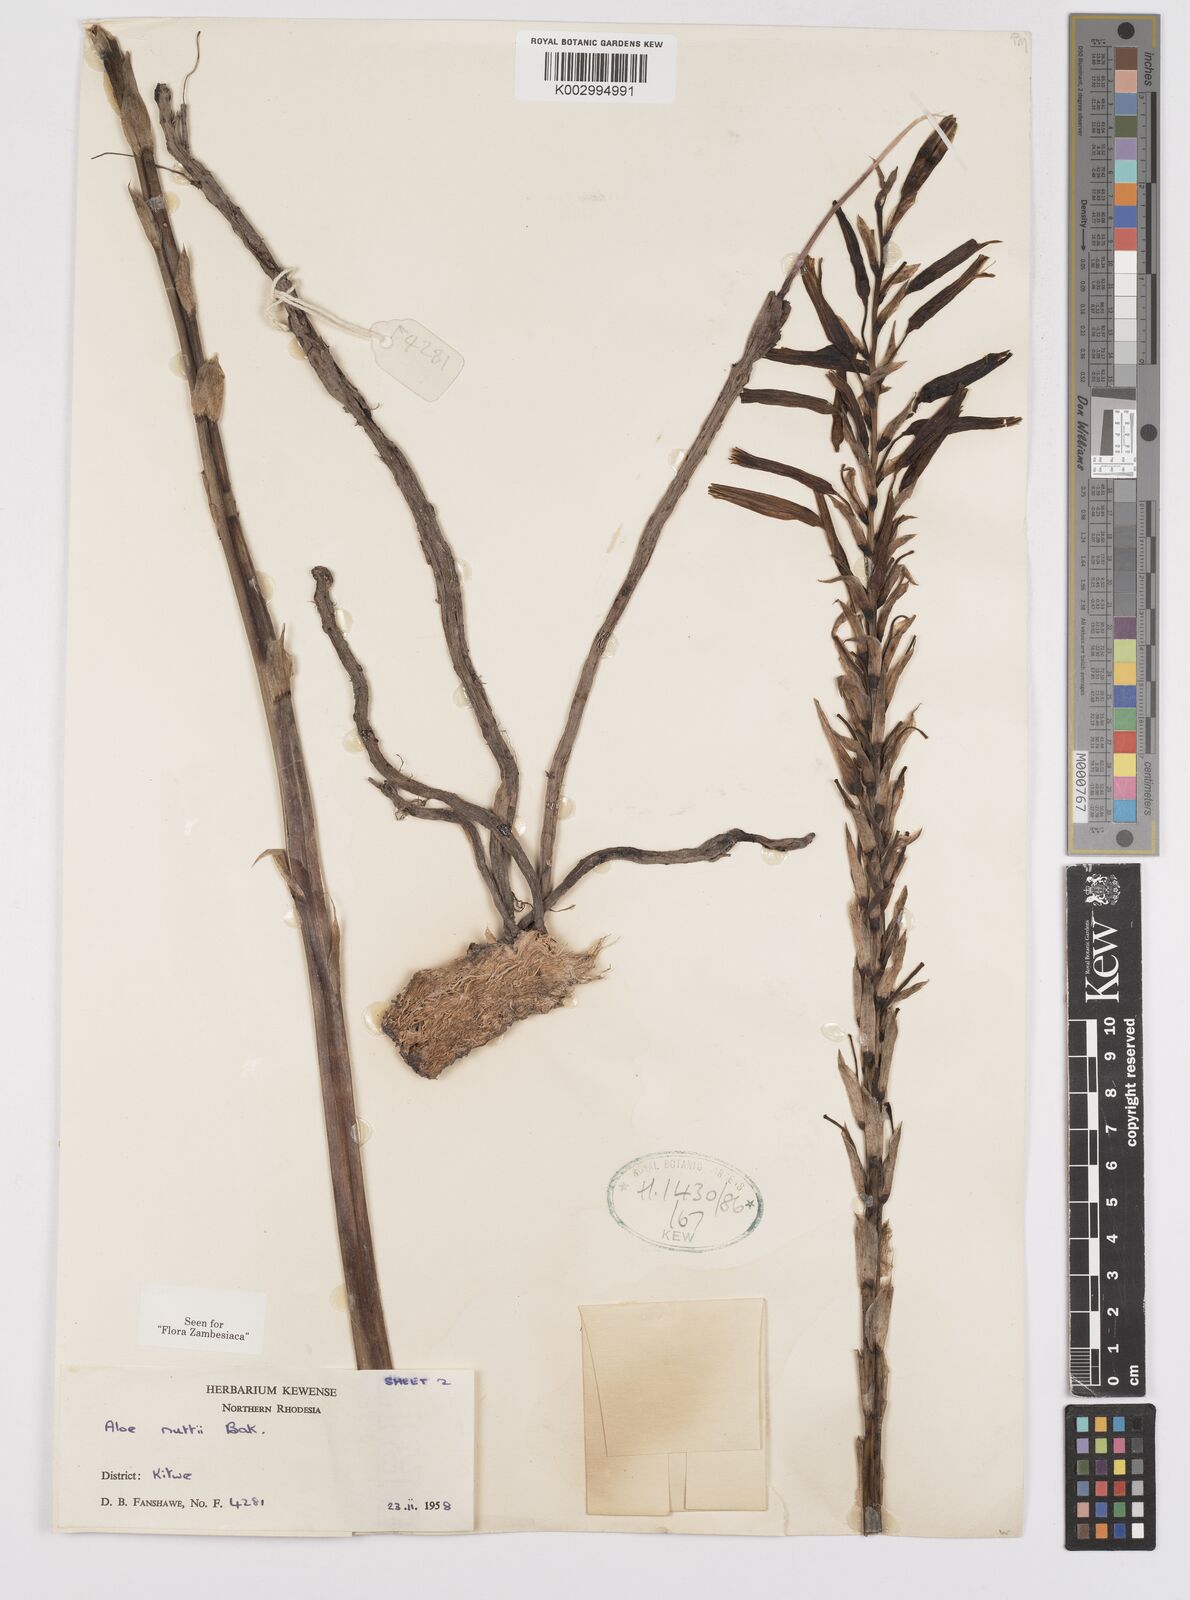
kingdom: Plantae
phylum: Tracheophyta
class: Liliopsida
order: Asparagales
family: Asphodelaceae
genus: Aloe
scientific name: Aloe nuttii
